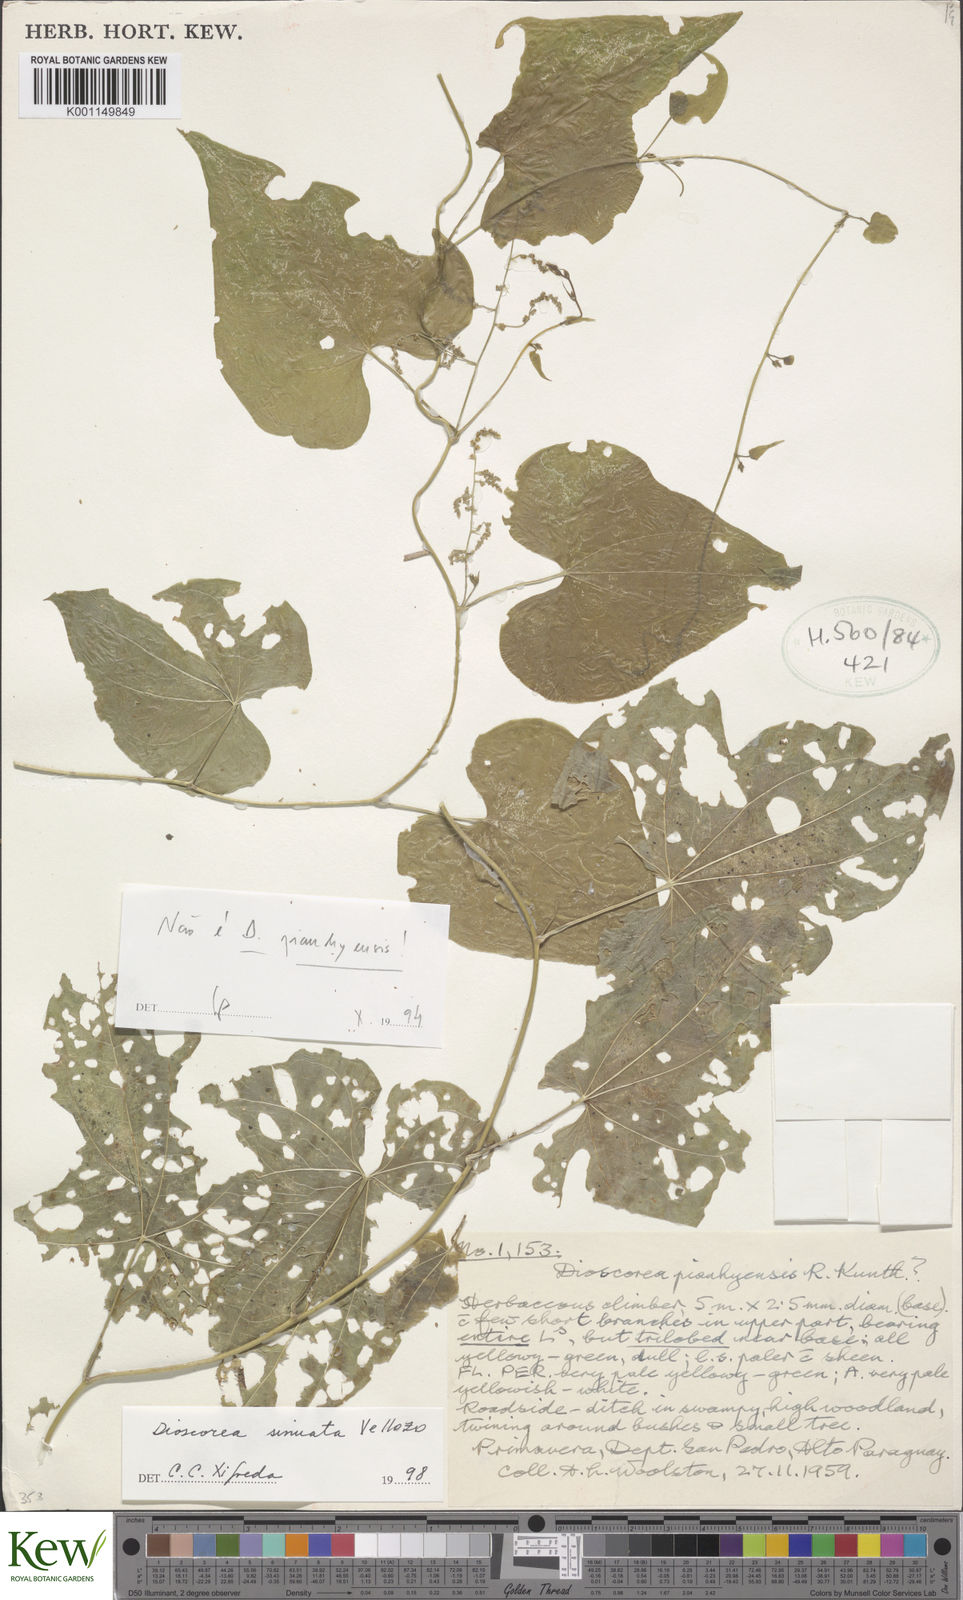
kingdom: Plantae
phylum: Tracheophyta
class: Liliopsida
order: Dioscoreales
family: Dioscoreaceae
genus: Dioscorea
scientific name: Dioscorea sinuata
